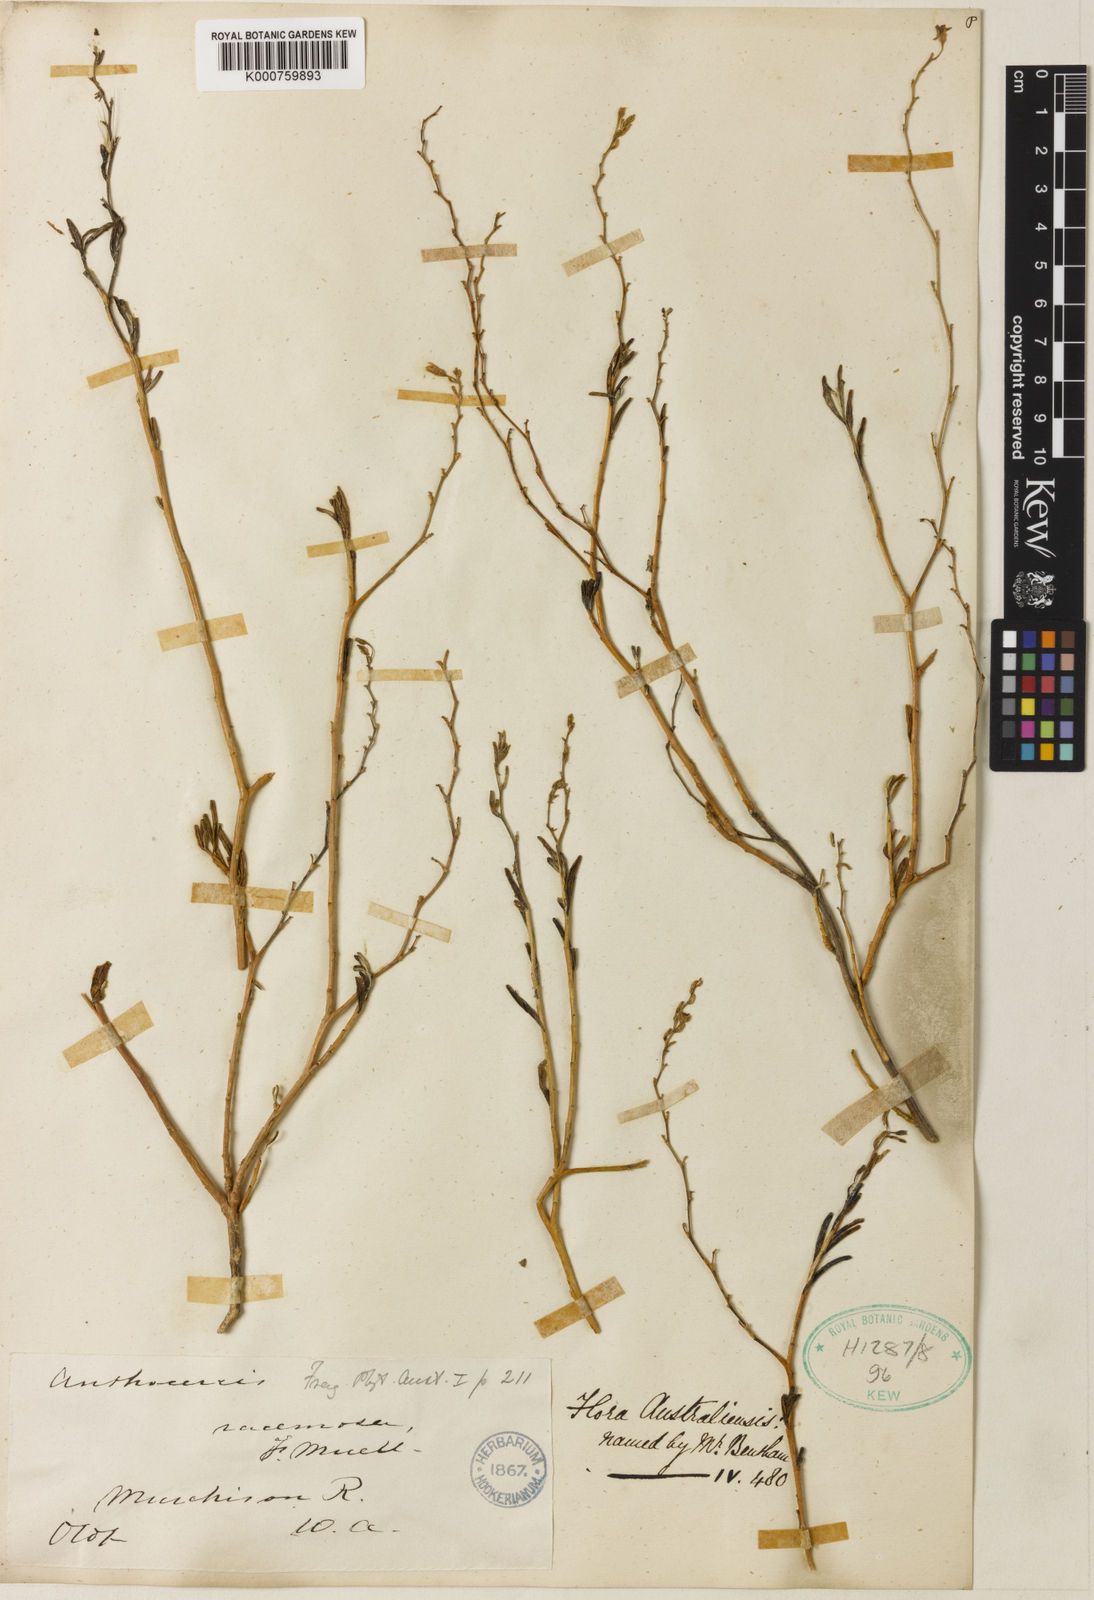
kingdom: Plantae
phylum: Tracheophyta
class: Magnoliopsida
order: Solanales
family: Solanaceae
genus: Cyphanthera
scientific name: Cyphanthera racemosa
